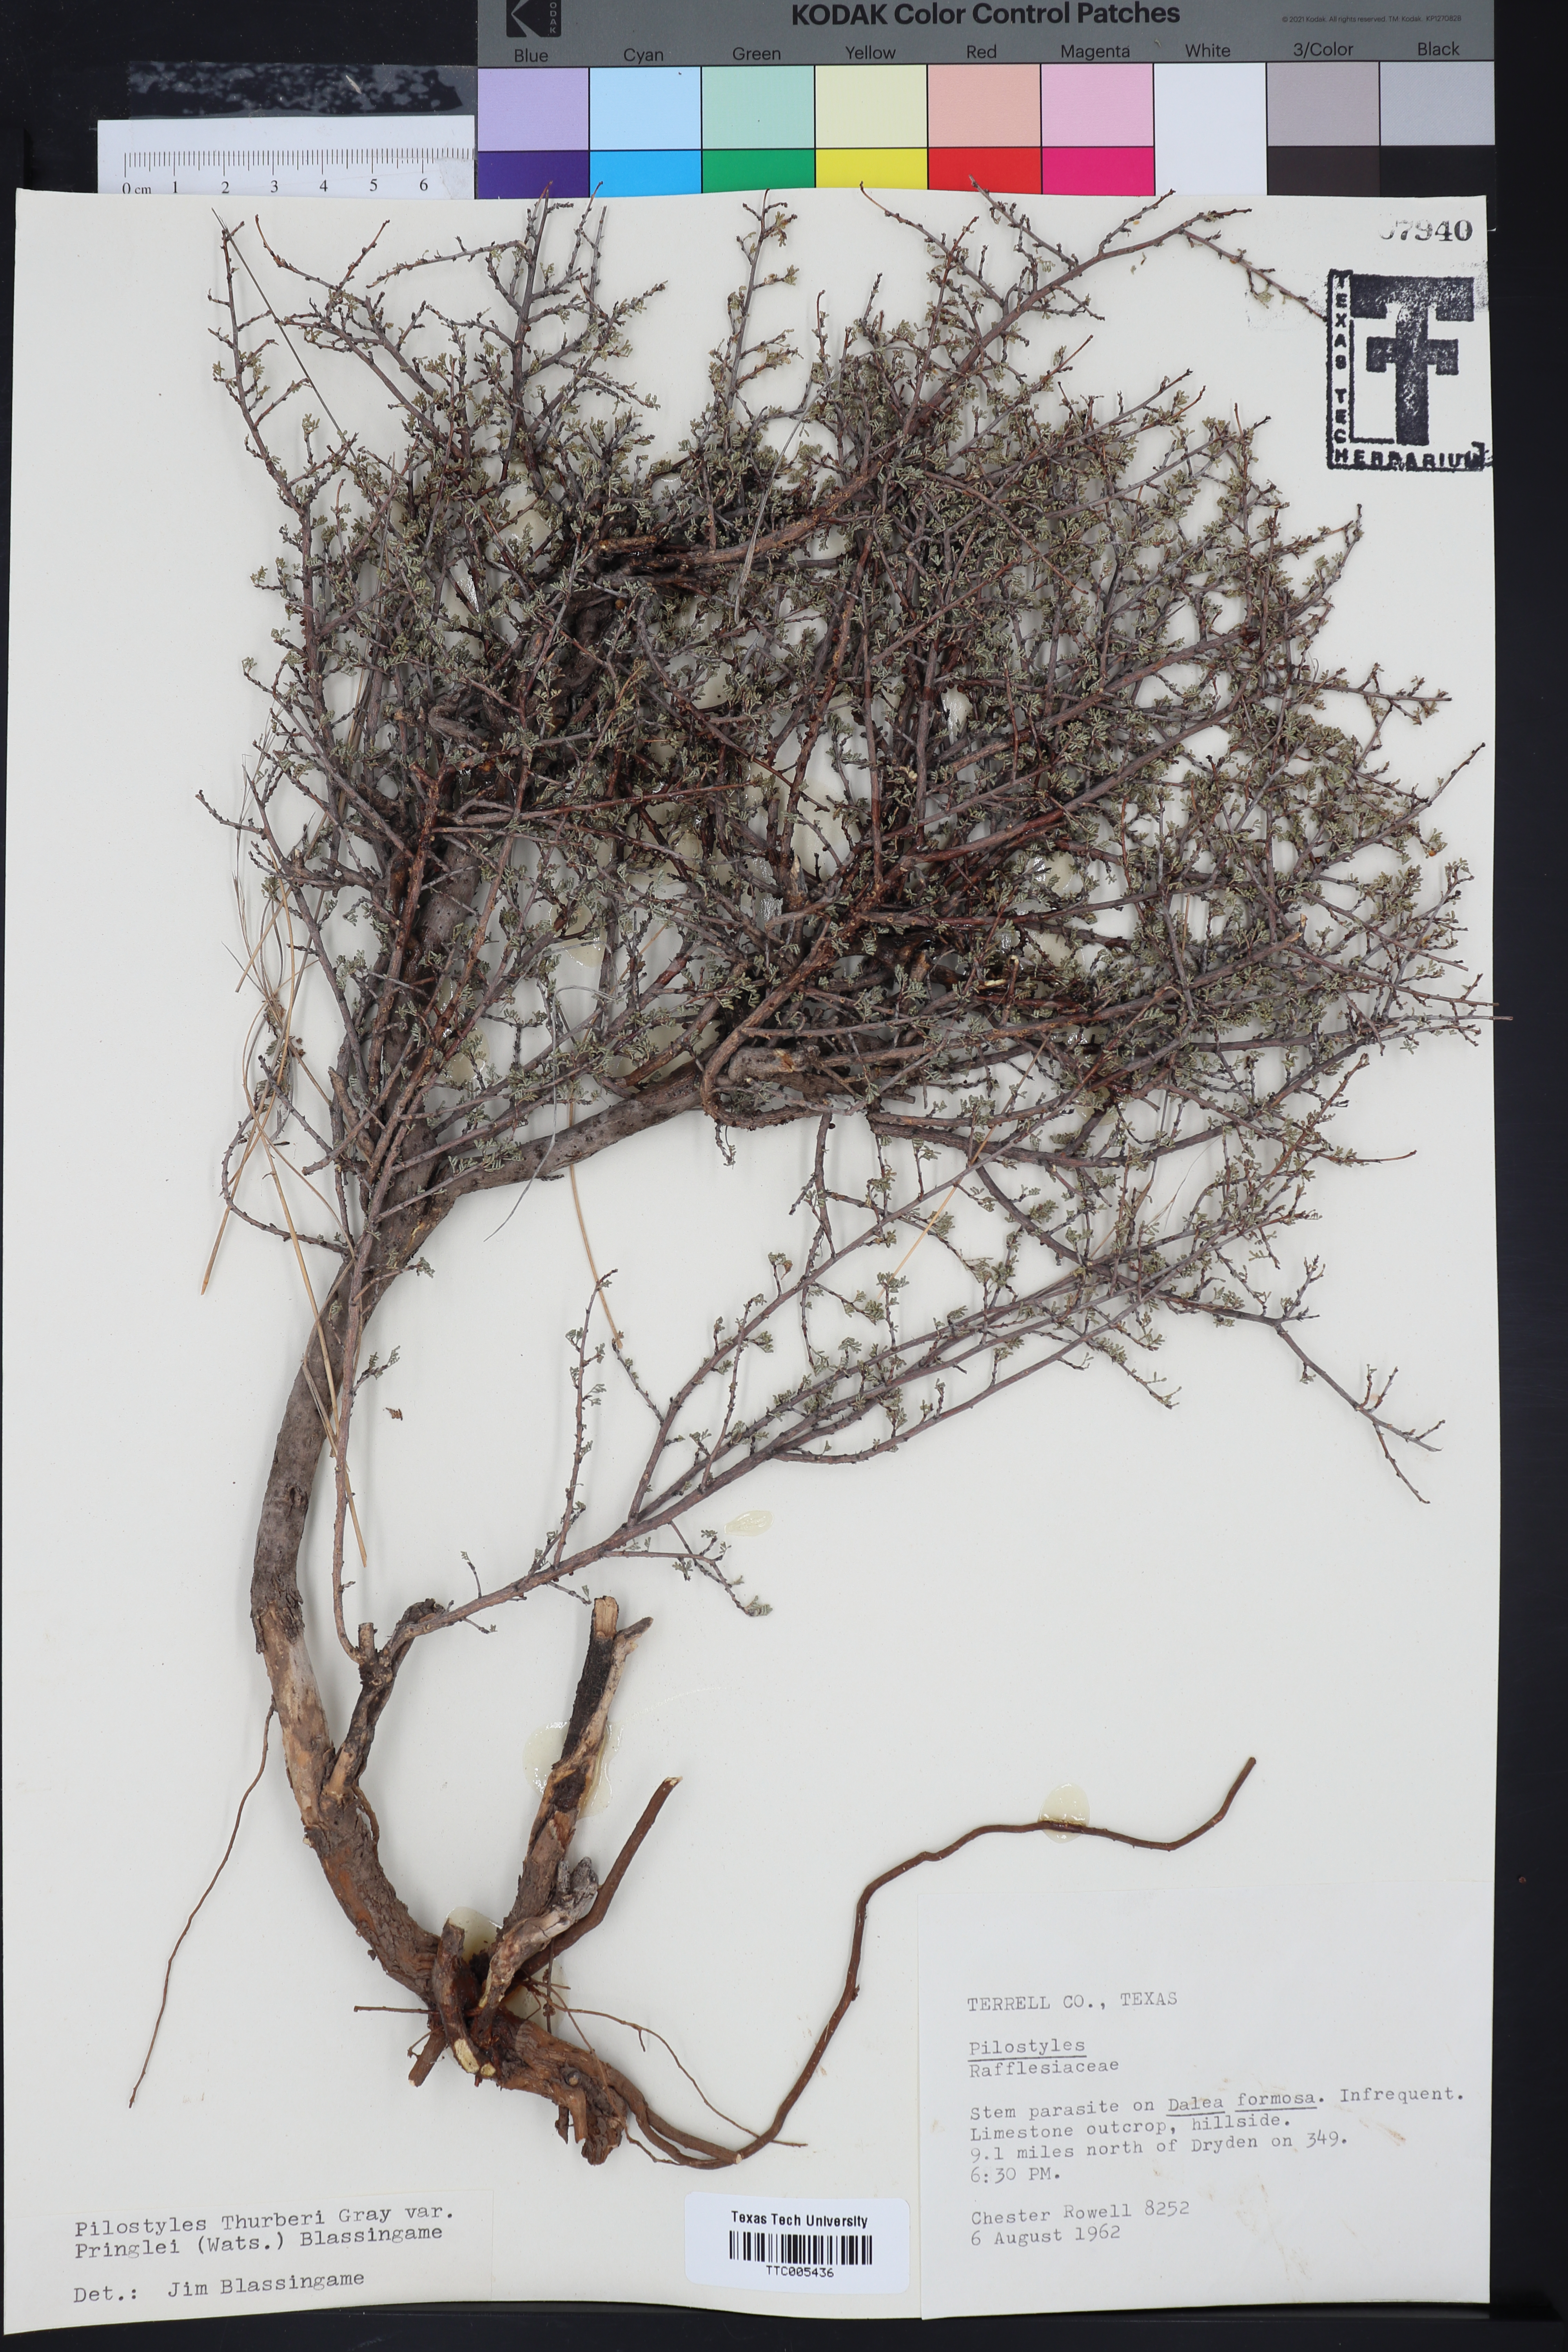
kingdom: Plantae
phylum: Tracheophyta
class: Magnoliopsida
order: Cucurbitales
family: Apodanthaceae
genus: Pilostyles
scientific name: Pilostyles thurberi
